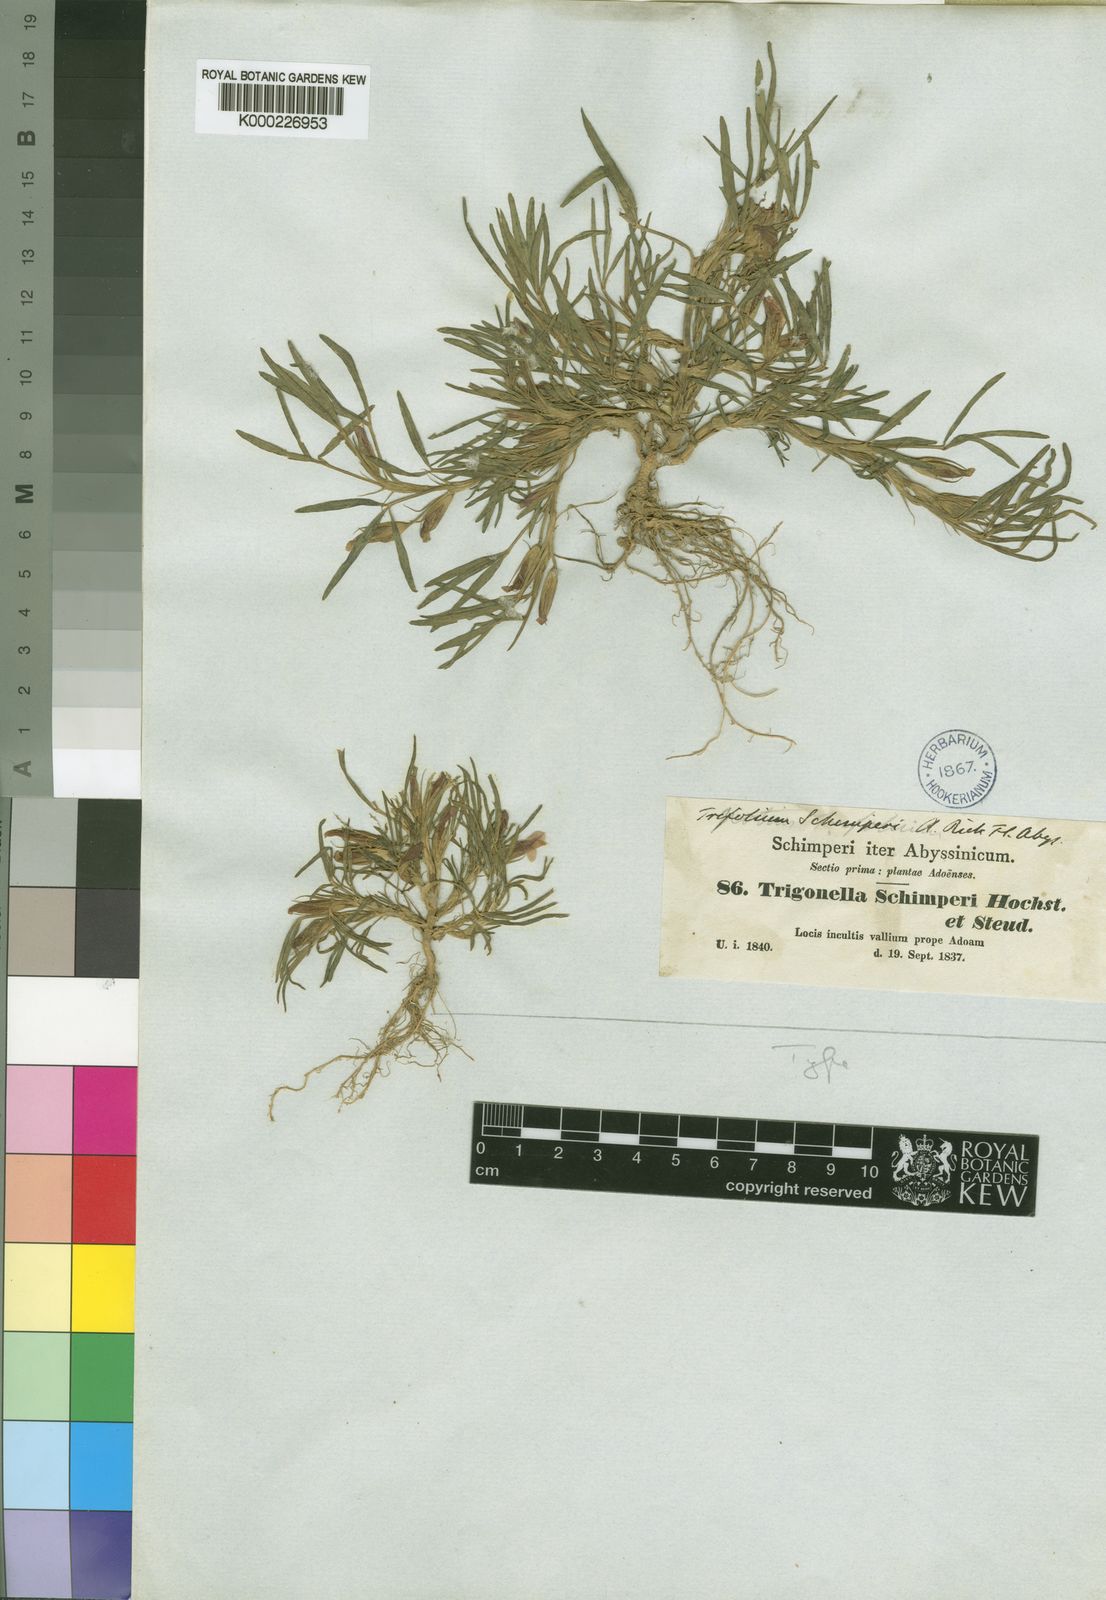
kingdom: Plantae
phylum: Tracheophyta
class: Magnoliopsida
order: Fabales
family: Fabaceae
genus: Trifolium
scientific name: Trifolium schimperi
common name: Schimper's clover
